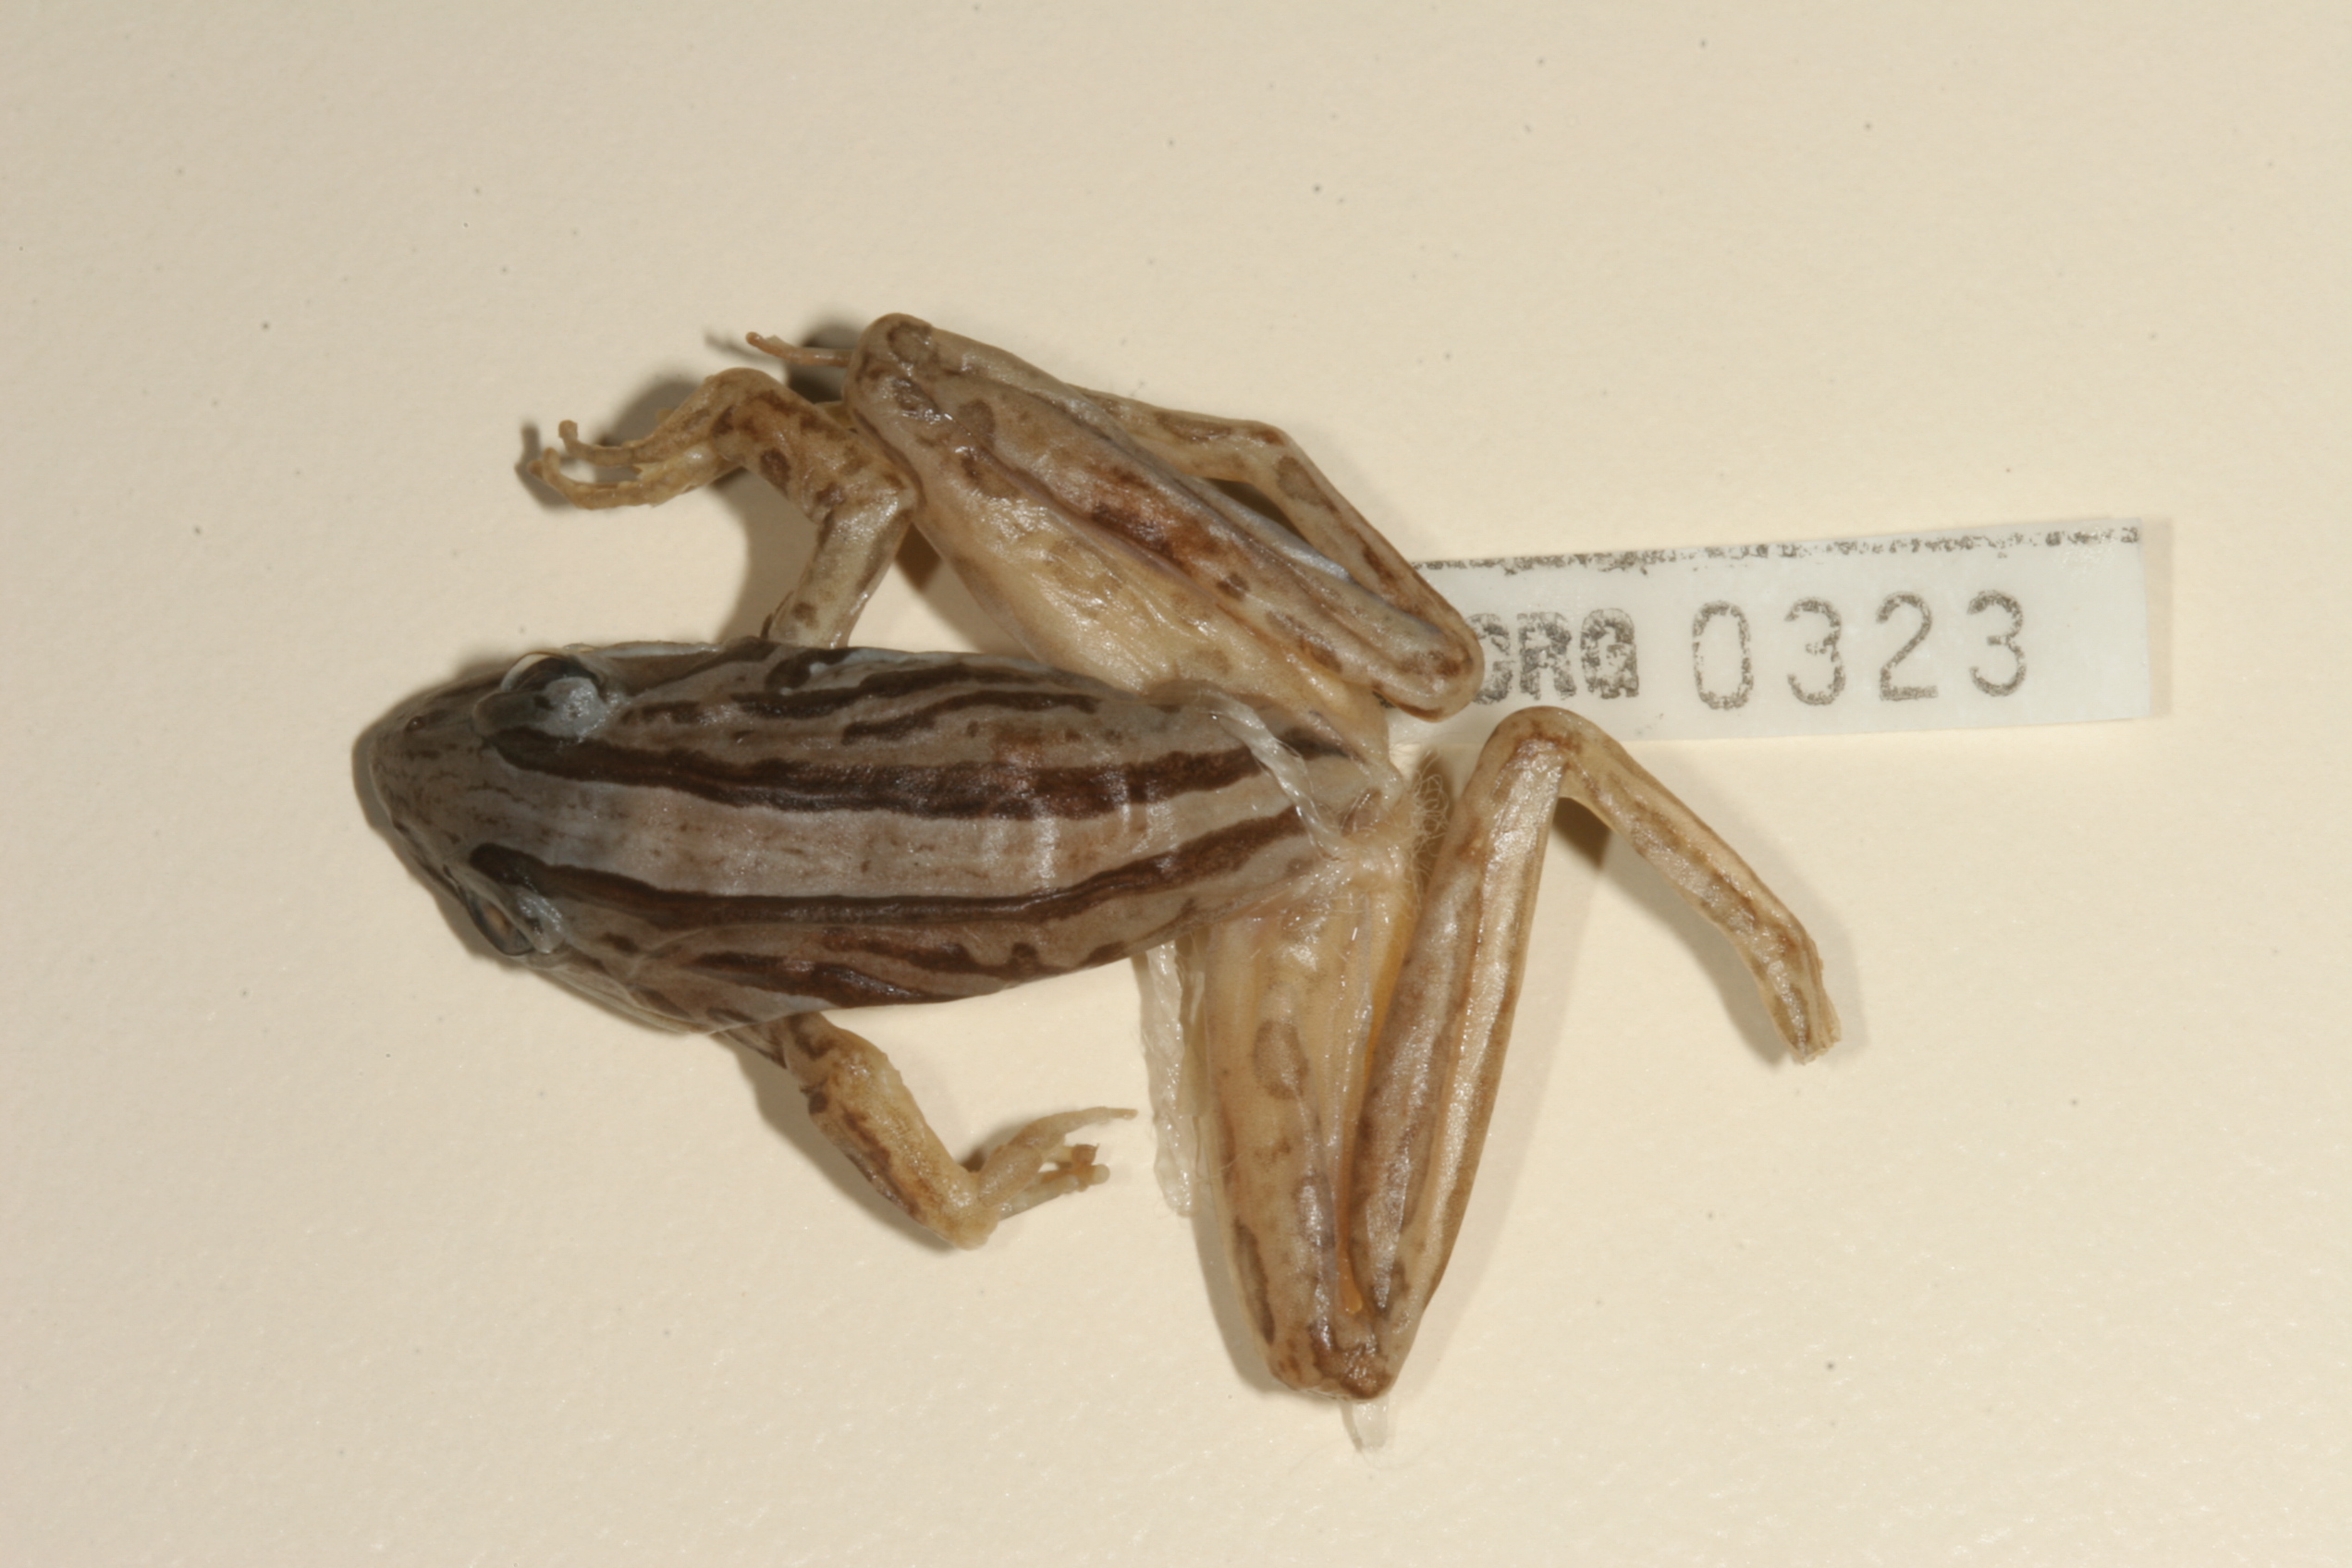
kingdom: Animalia
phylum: Chordata
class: Amphibia
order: Anura
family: Pyxicephalidae
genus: Strongylopus
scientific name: Strongylopus fasciatus
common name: Striped stream frog
